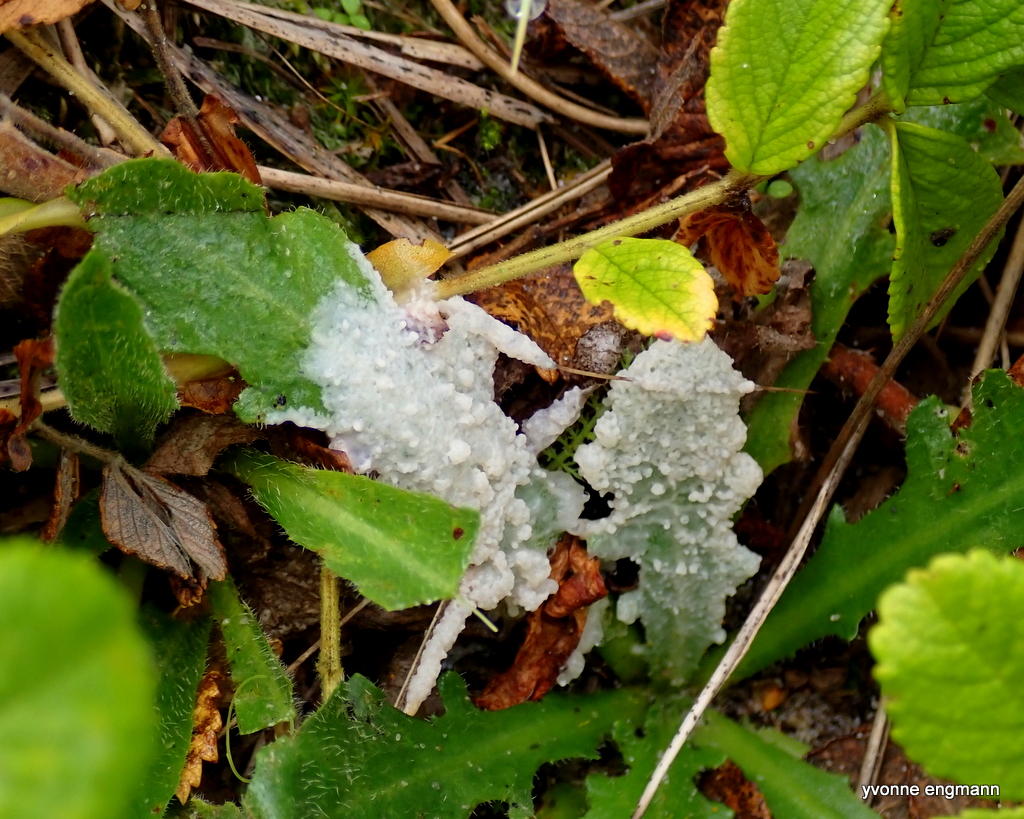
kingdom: Protozoa
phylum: Mycetozoa
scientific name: Mycetozoa
